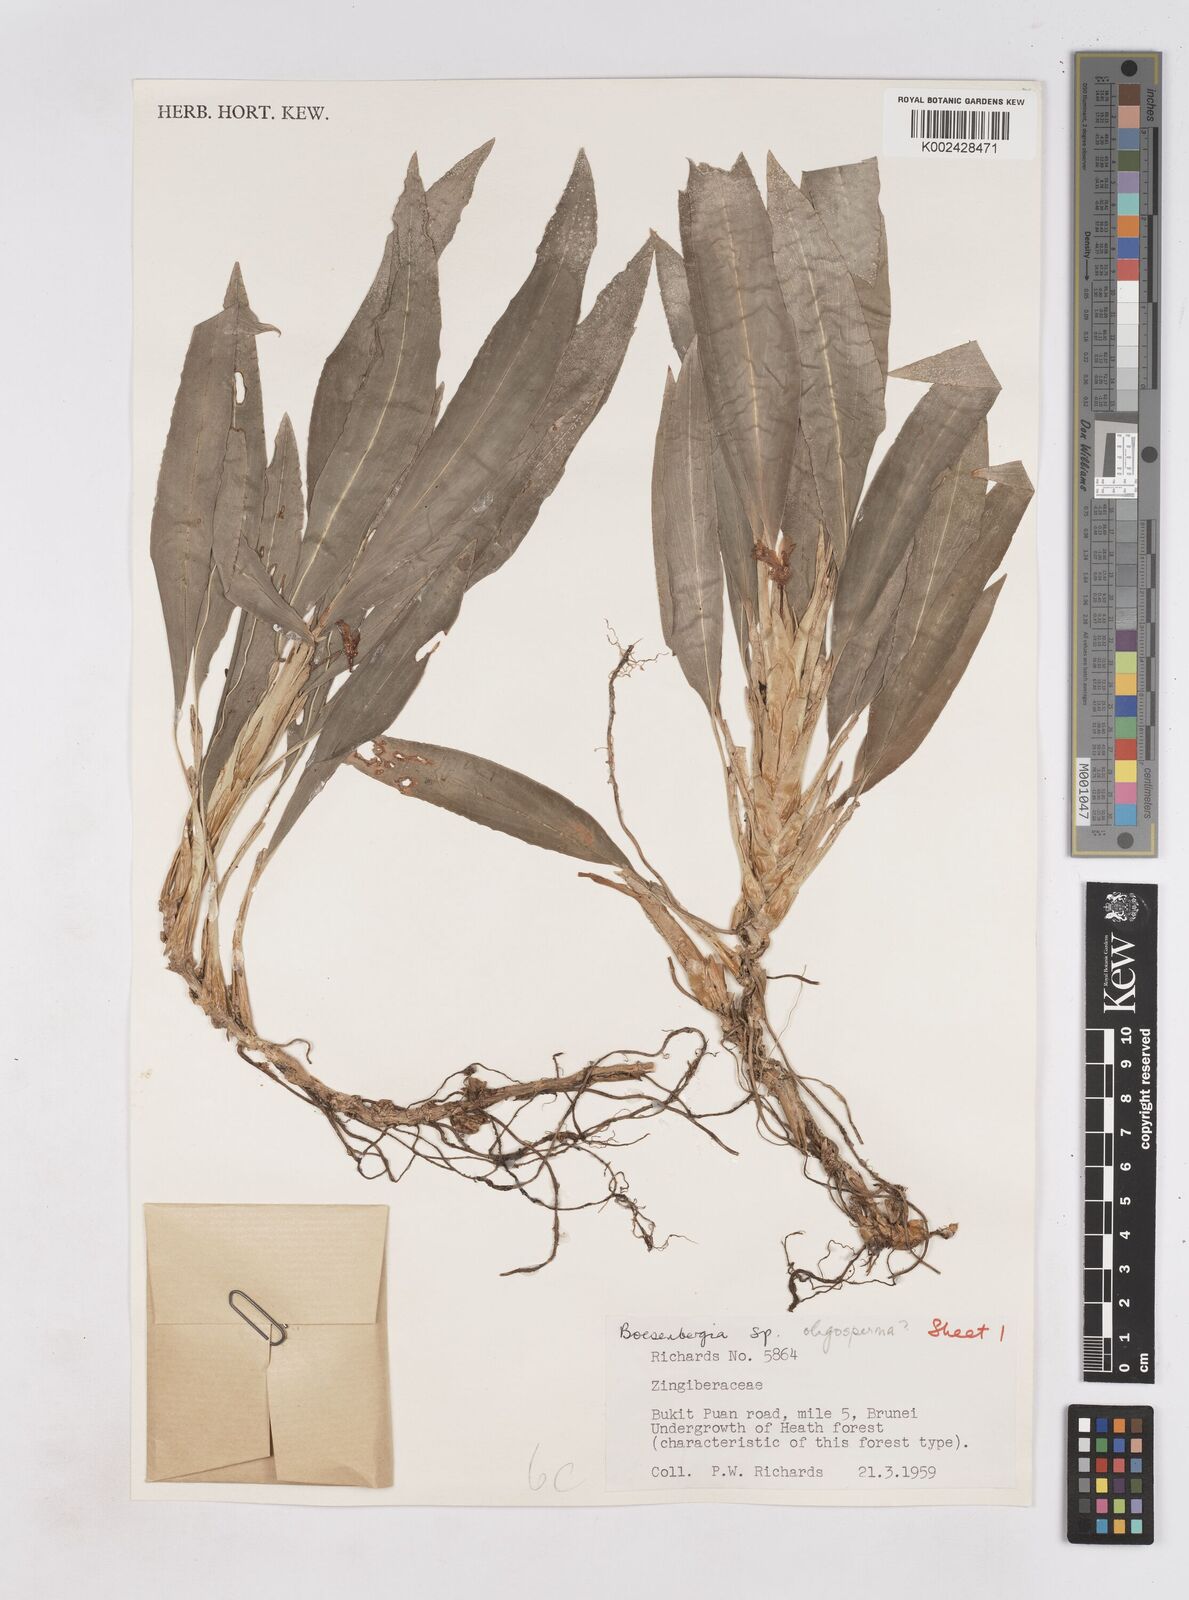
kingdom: Plantae
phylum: Tracheophyta
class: Liliopsida
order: Zingiberales
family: Zingiberaceae
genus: Boesenbergia
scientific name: Boesenbergia
